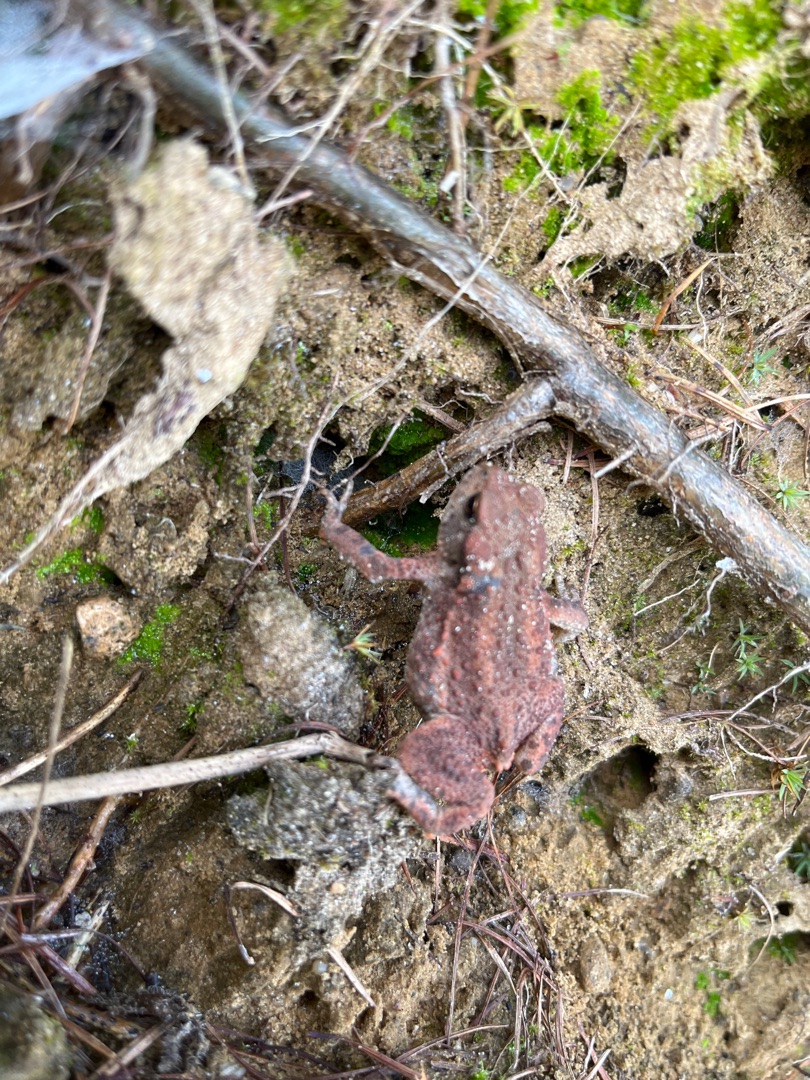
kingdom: Animalia
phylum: Chordata
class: Amphibia
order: Anura
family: Bufonidae
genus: Bufo
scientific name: Bufo bufo
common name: Skrubtudse
